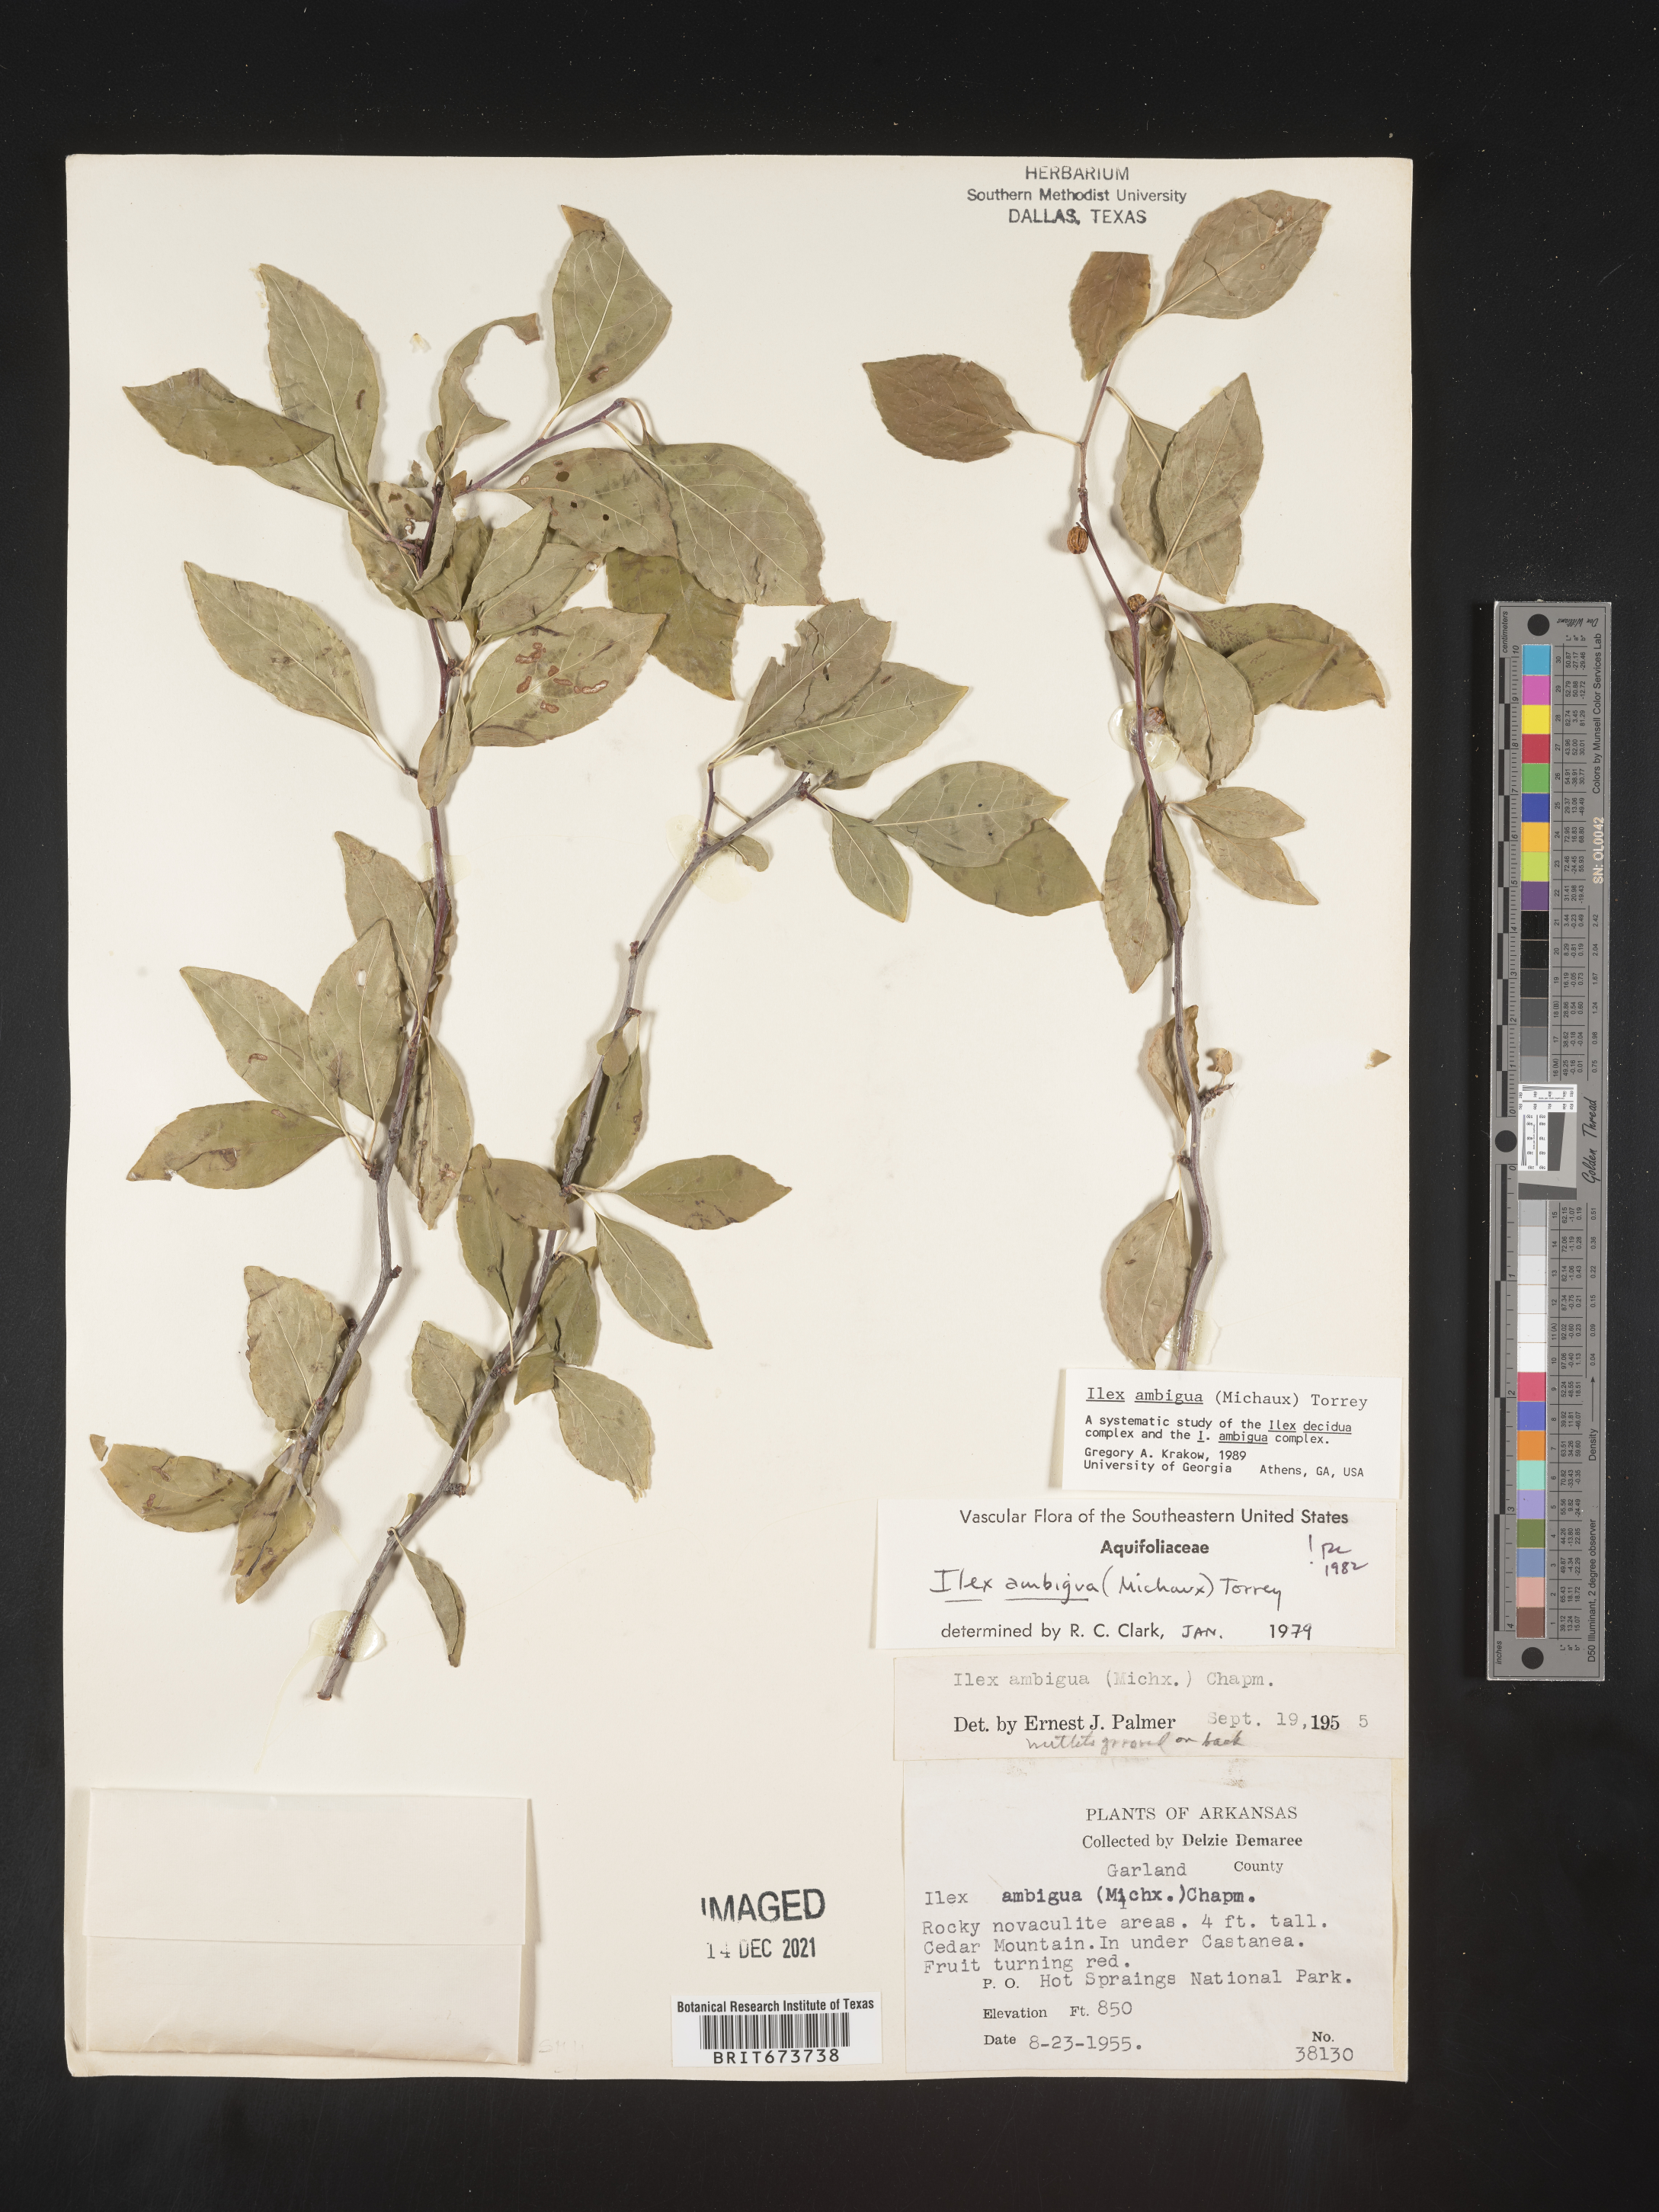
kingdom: Plantae
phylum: Tracheophyta
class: Magnoliopsida
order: Aquifoliales
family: Aquifoliaceae
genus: Ilex
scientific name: Ilex ambigua
